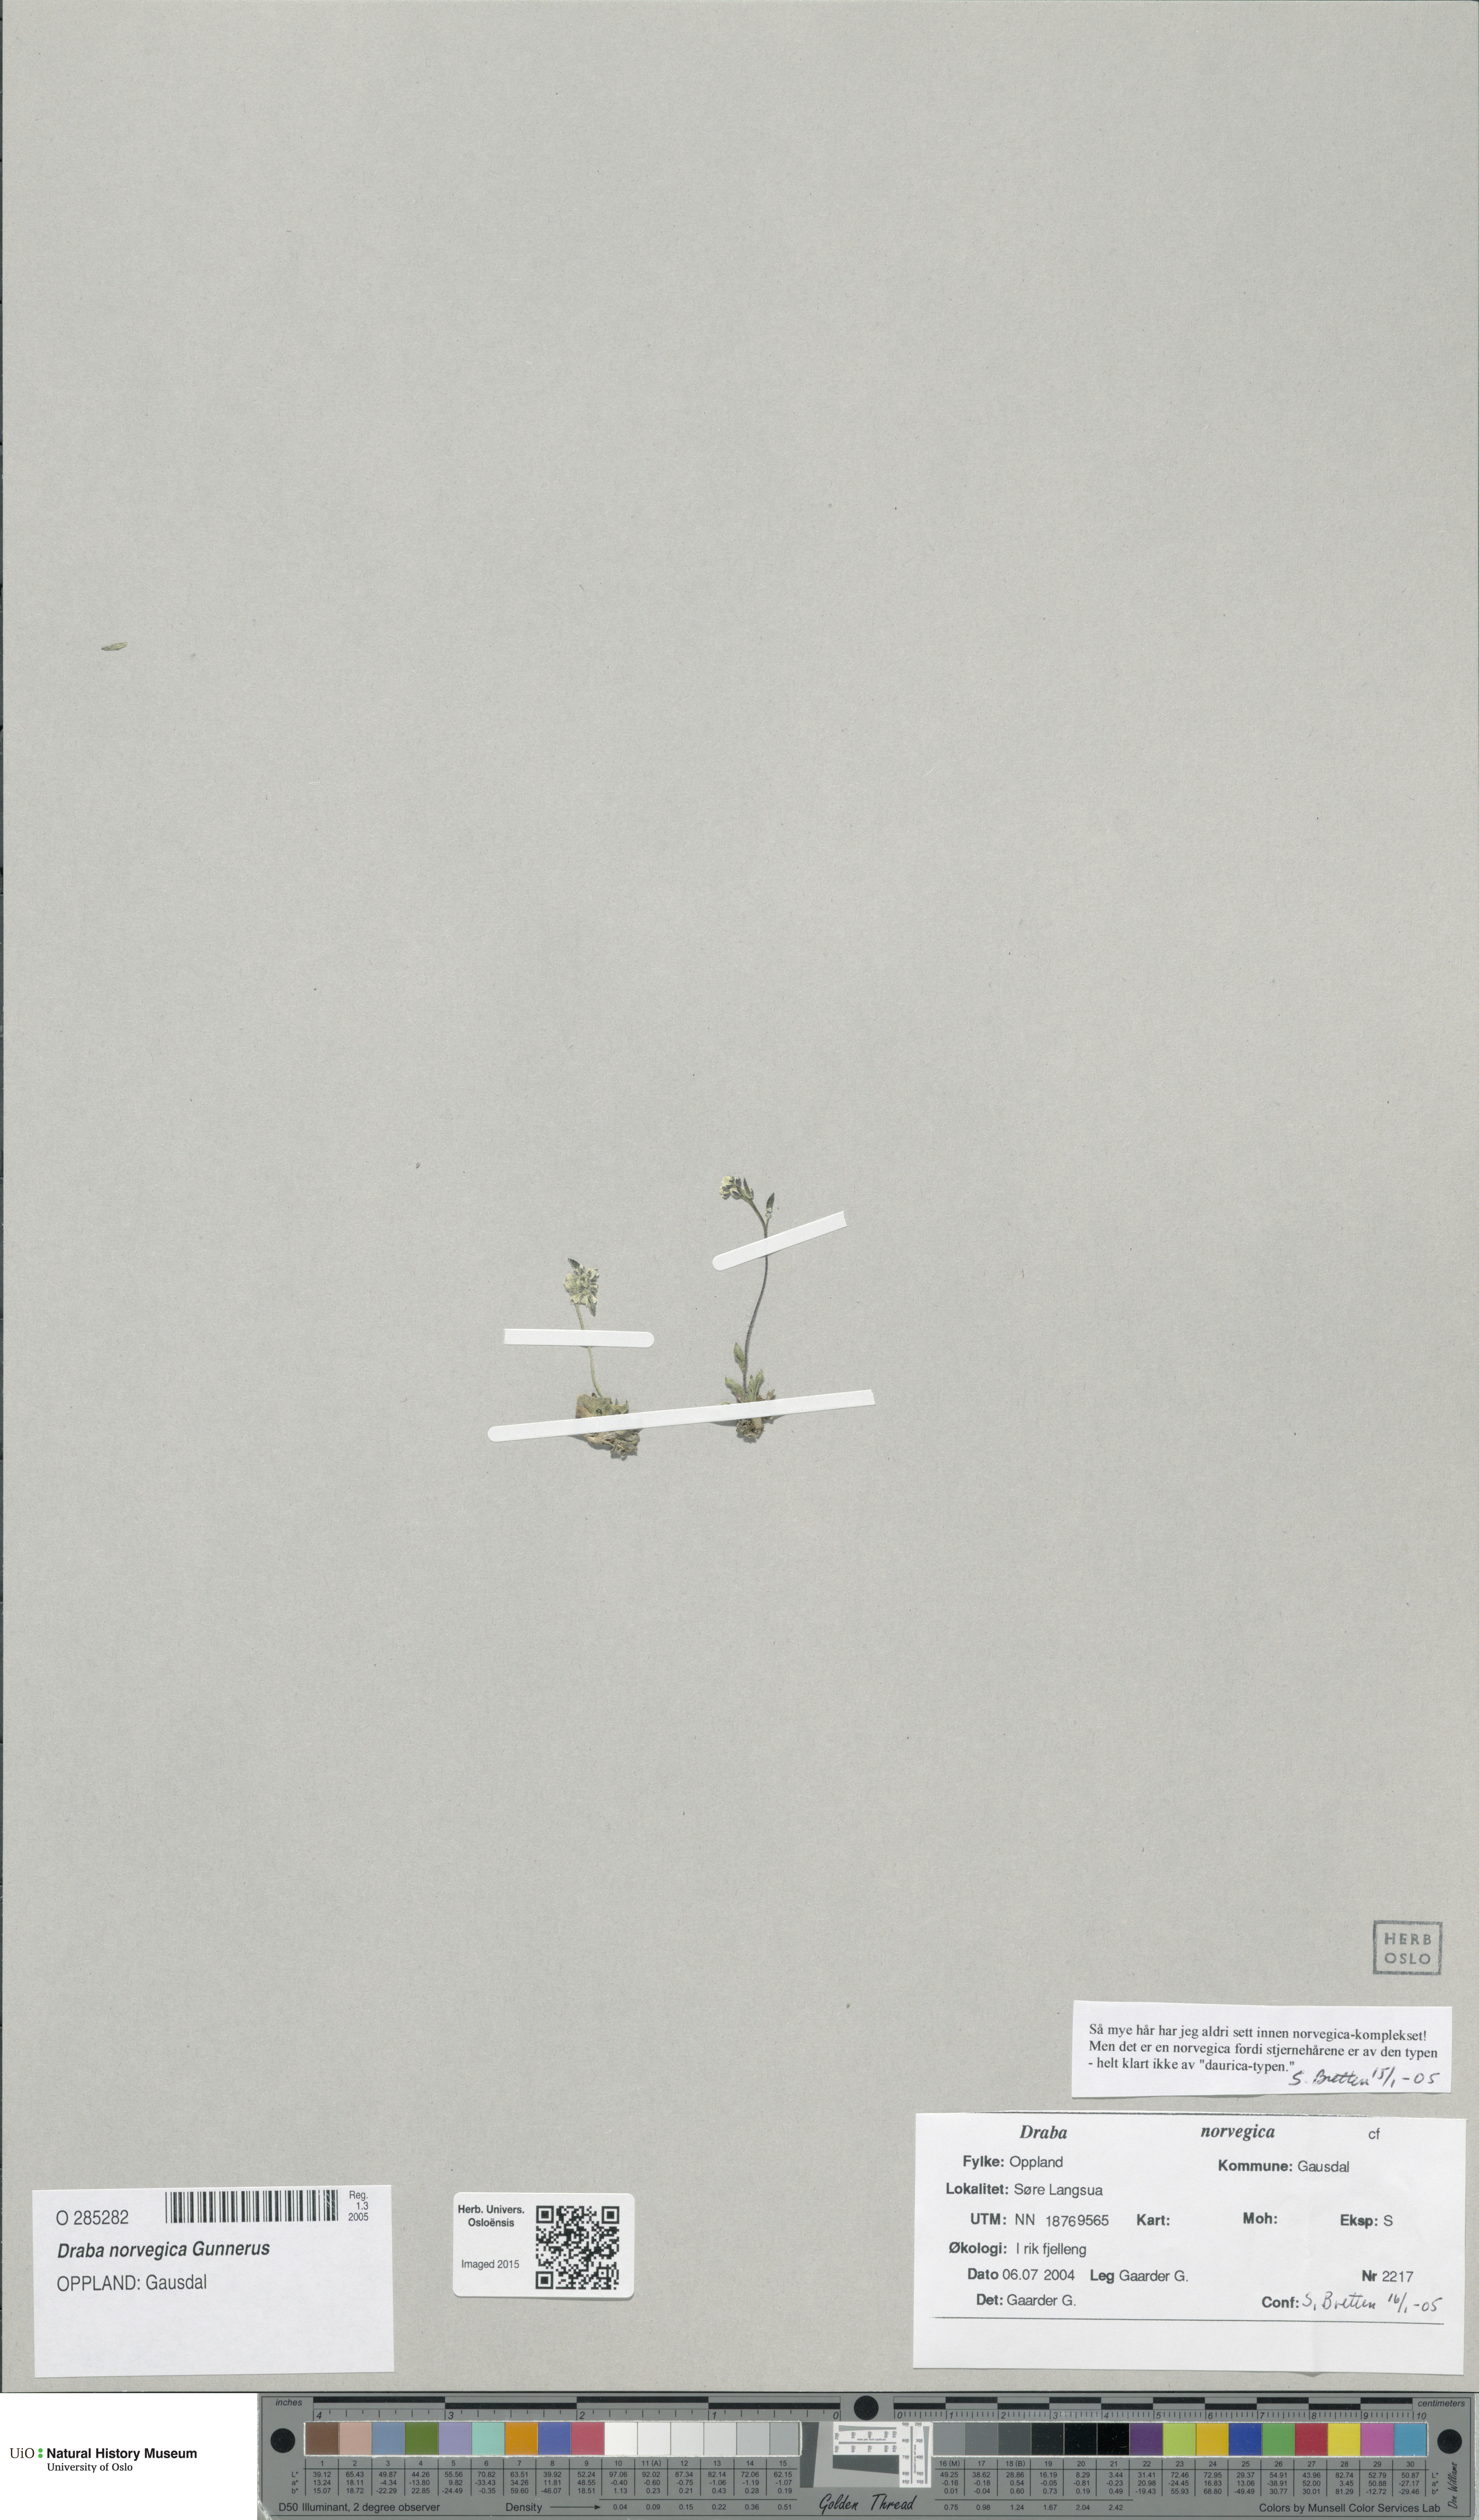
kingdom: Plantae
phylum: Tracheophyta
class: Magnoliopsida
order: Brassicales
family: Brassicaceae
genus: Draba
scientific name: Draba norvegica
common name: Rock whitlowgrass
